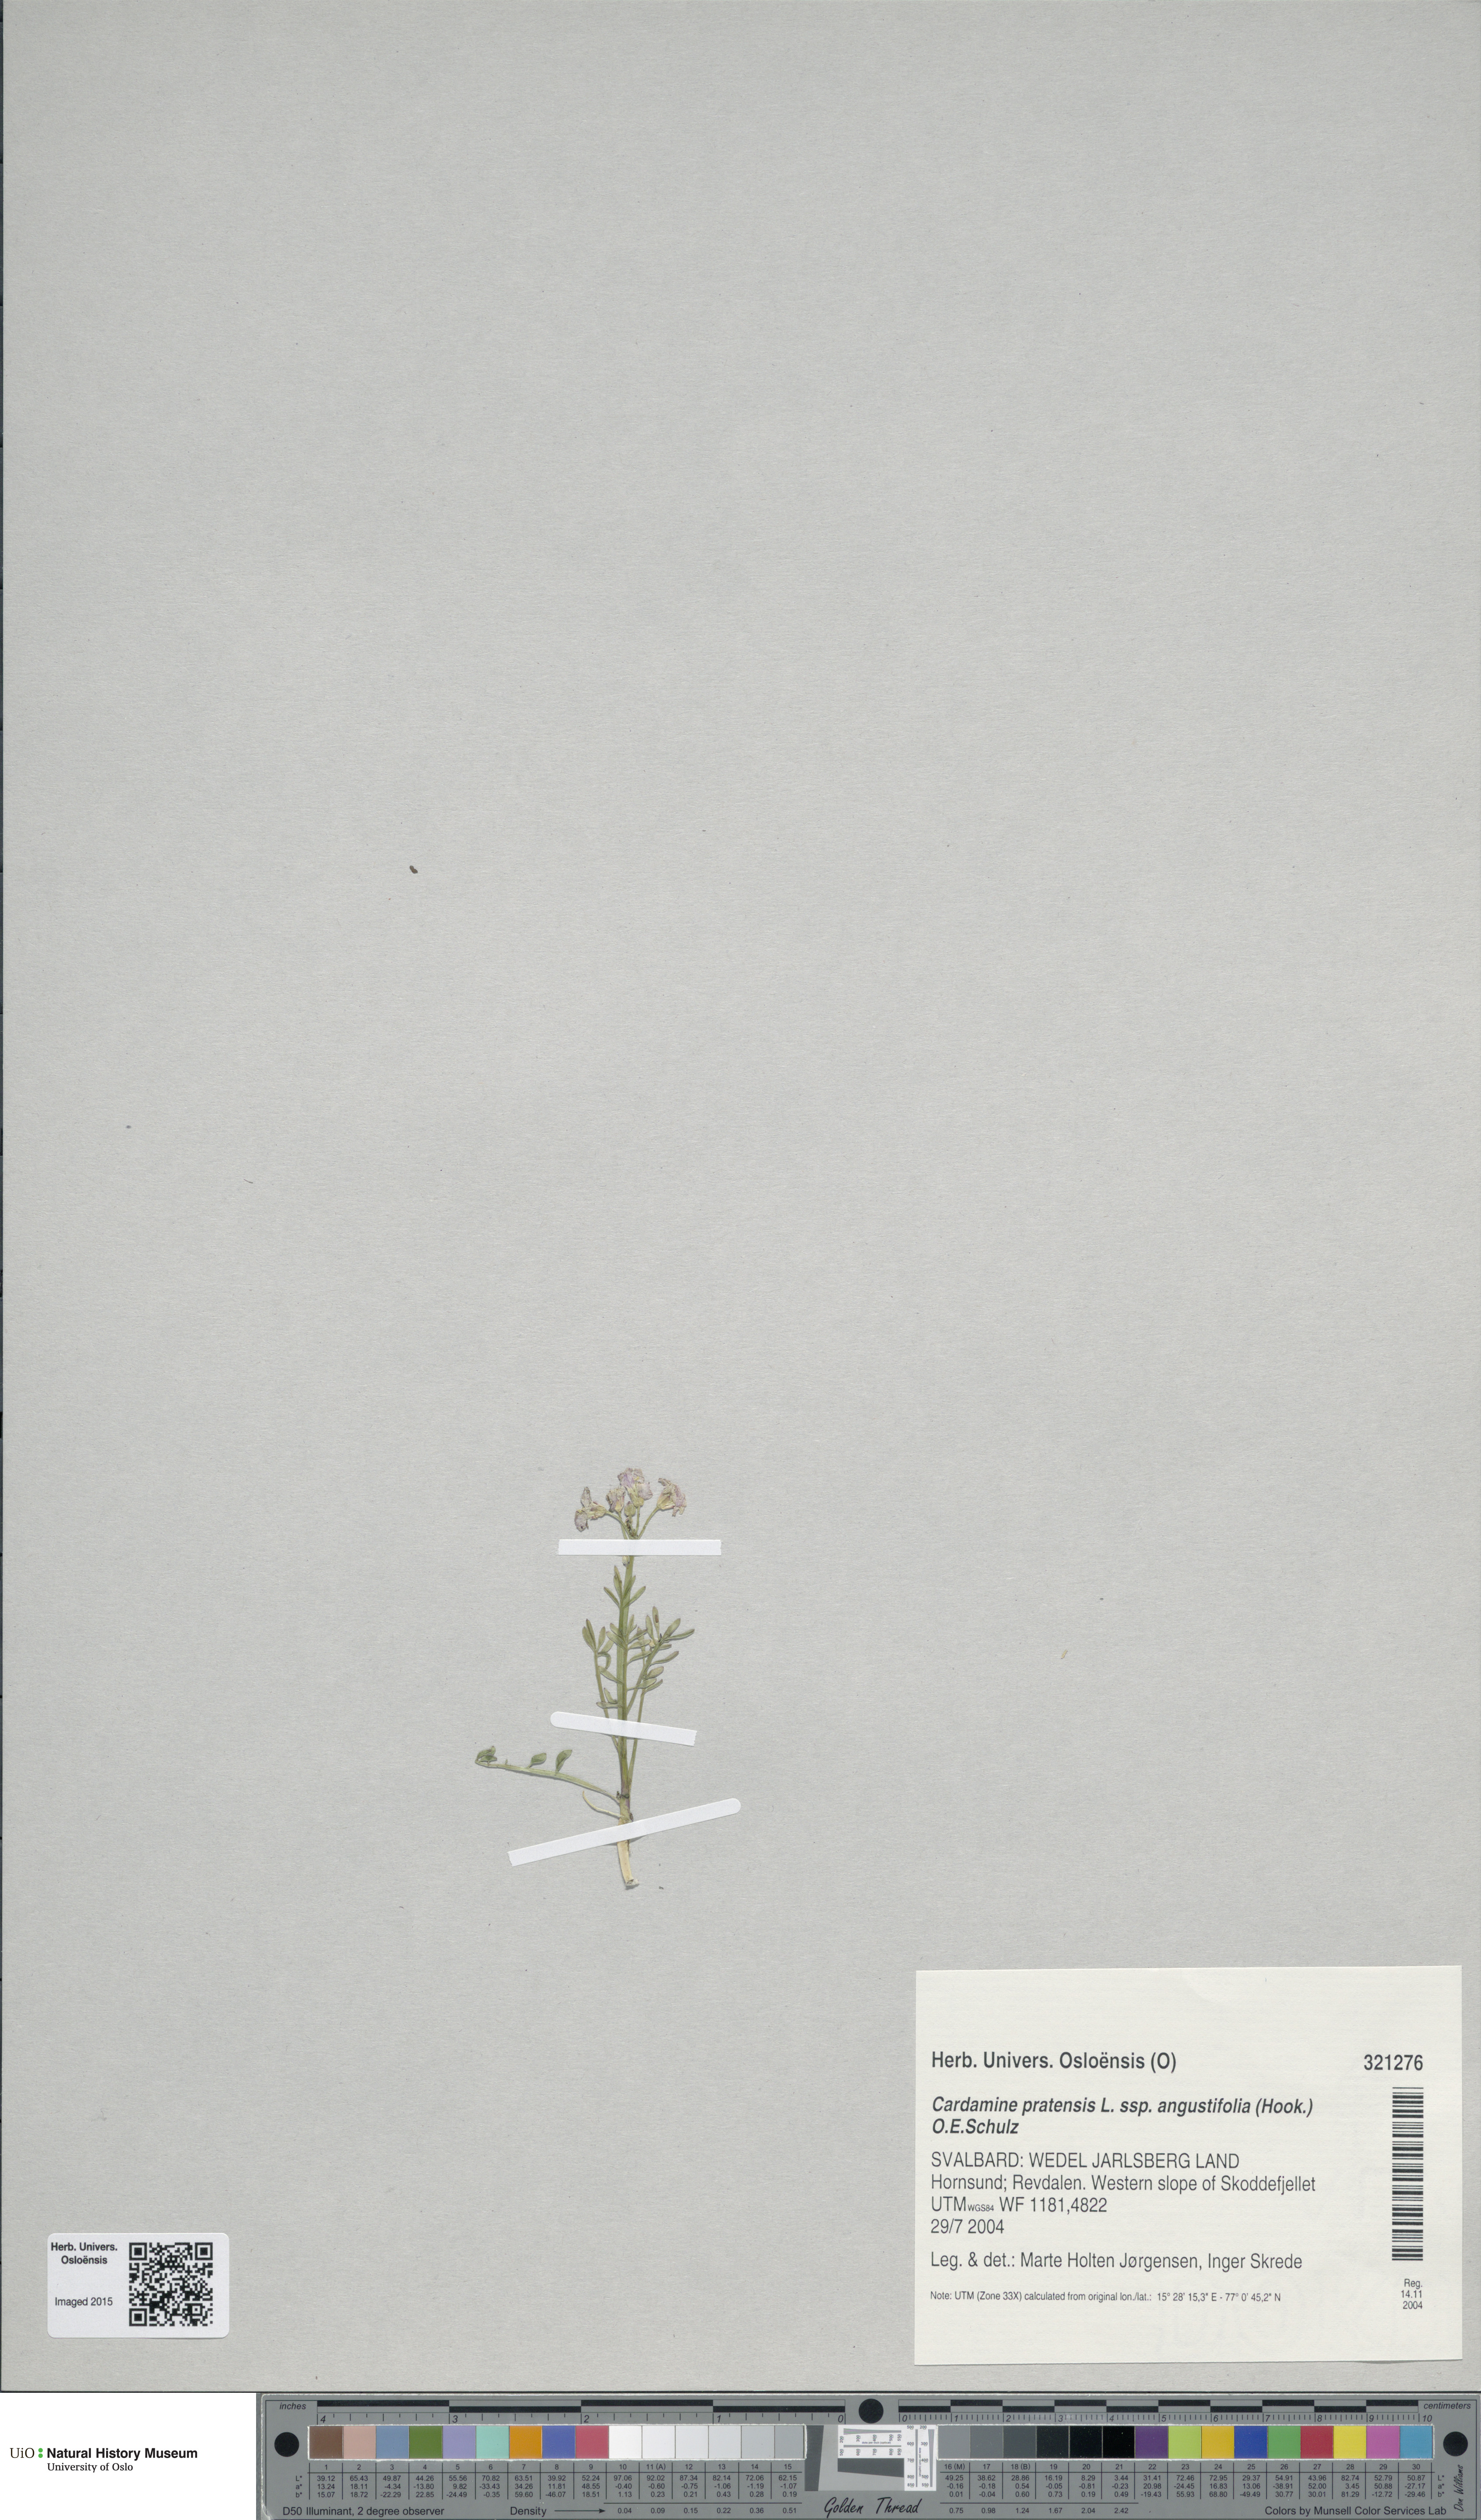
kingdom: Plantae
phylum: Tracheophyta
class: Magnoliopsida
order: Brassicales
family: Brassicaceae
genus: Cardamine
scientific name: Cardamine nymanii
